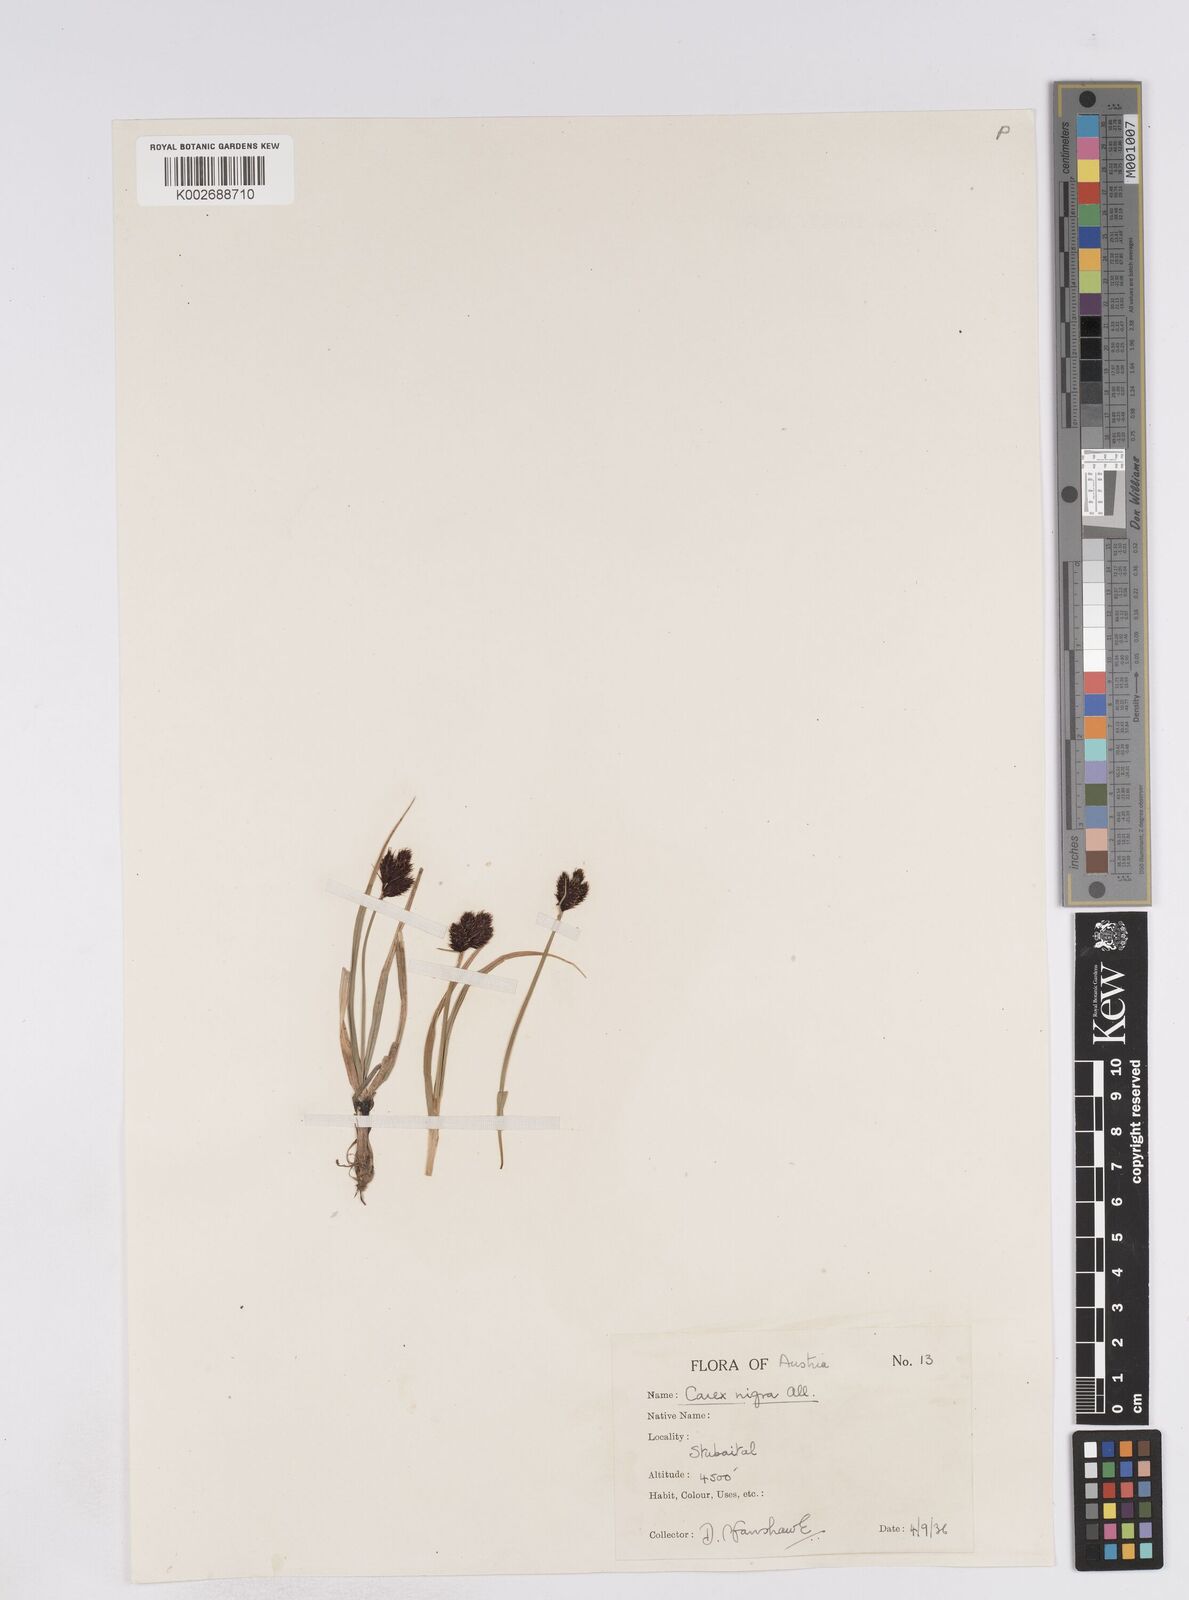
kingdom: Plantae
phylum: Tracheophyta
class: Liliopsida
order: Poales
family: Cyperaceae
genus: Carex
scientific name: Carex parviflora
